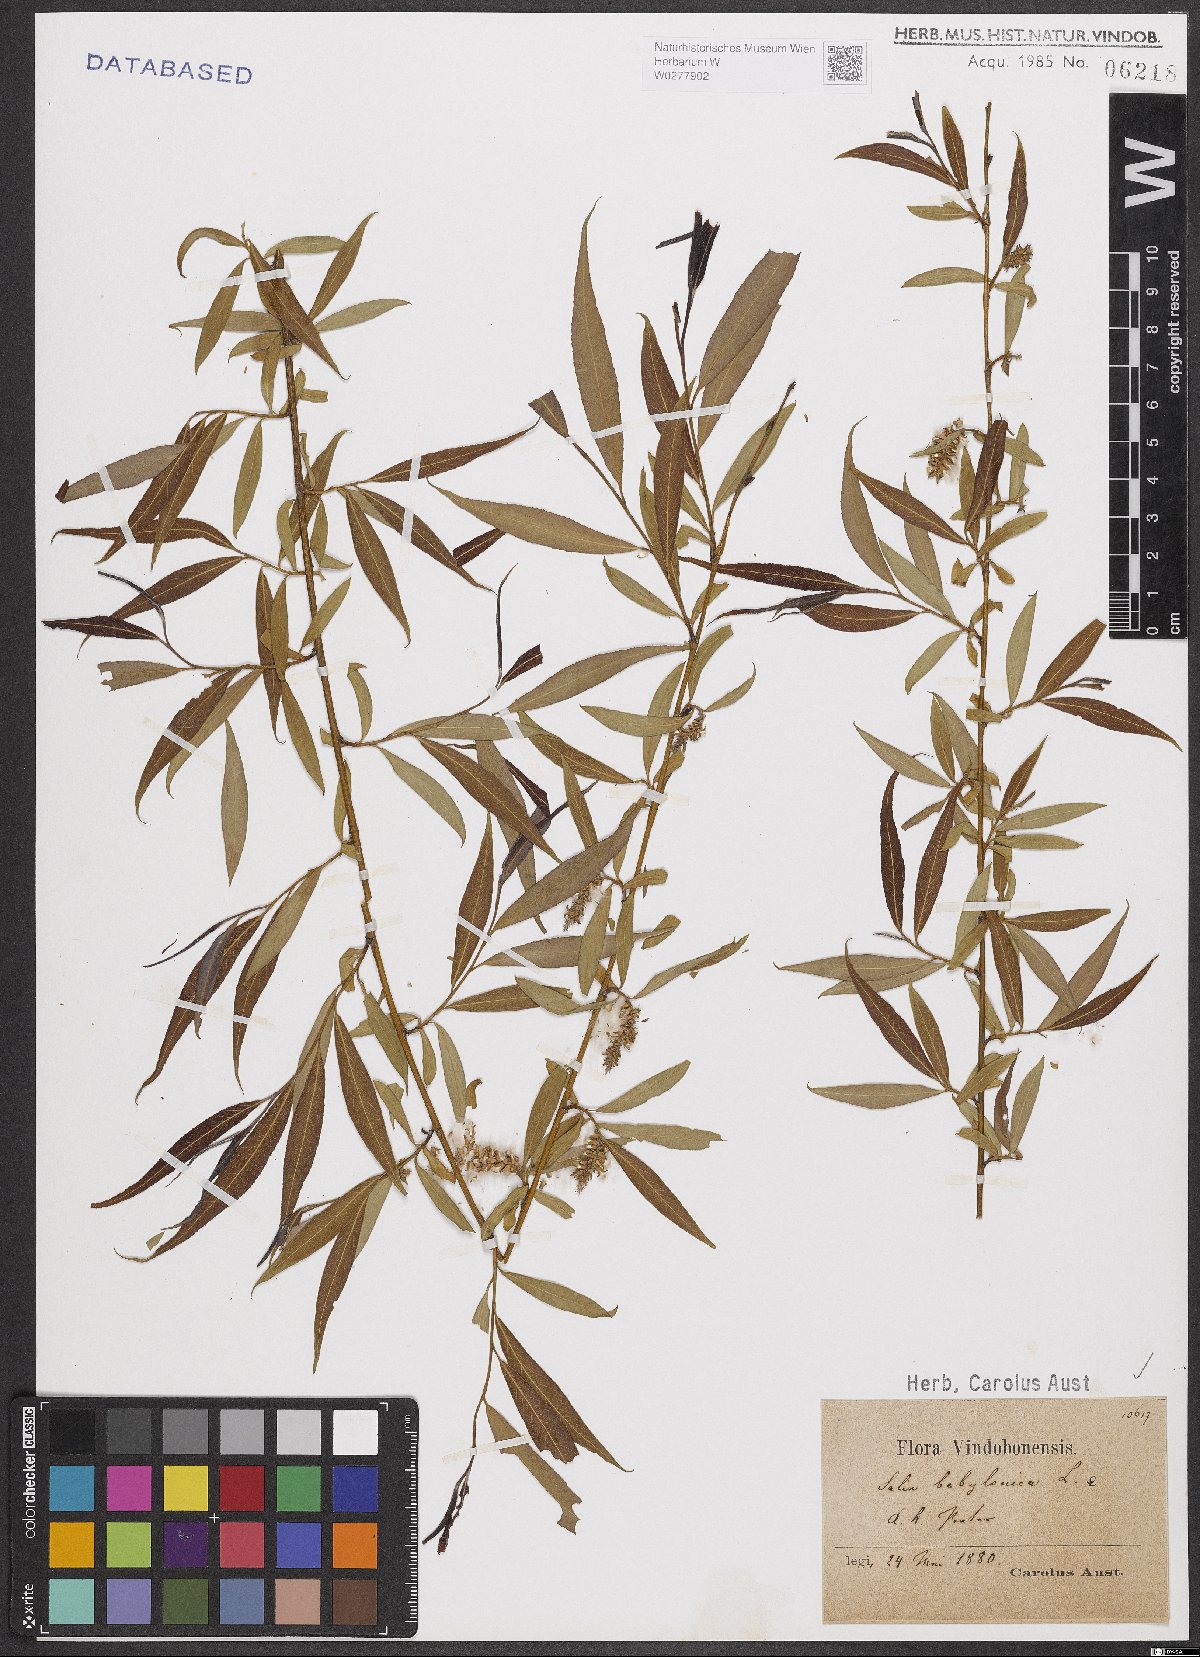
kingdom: Plantae
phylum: Tracheophyta
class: Magnoliopsida
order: Malpighiales
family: Salicaceae
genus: Salix
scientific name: Salix babylonica
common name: Weeping willow
